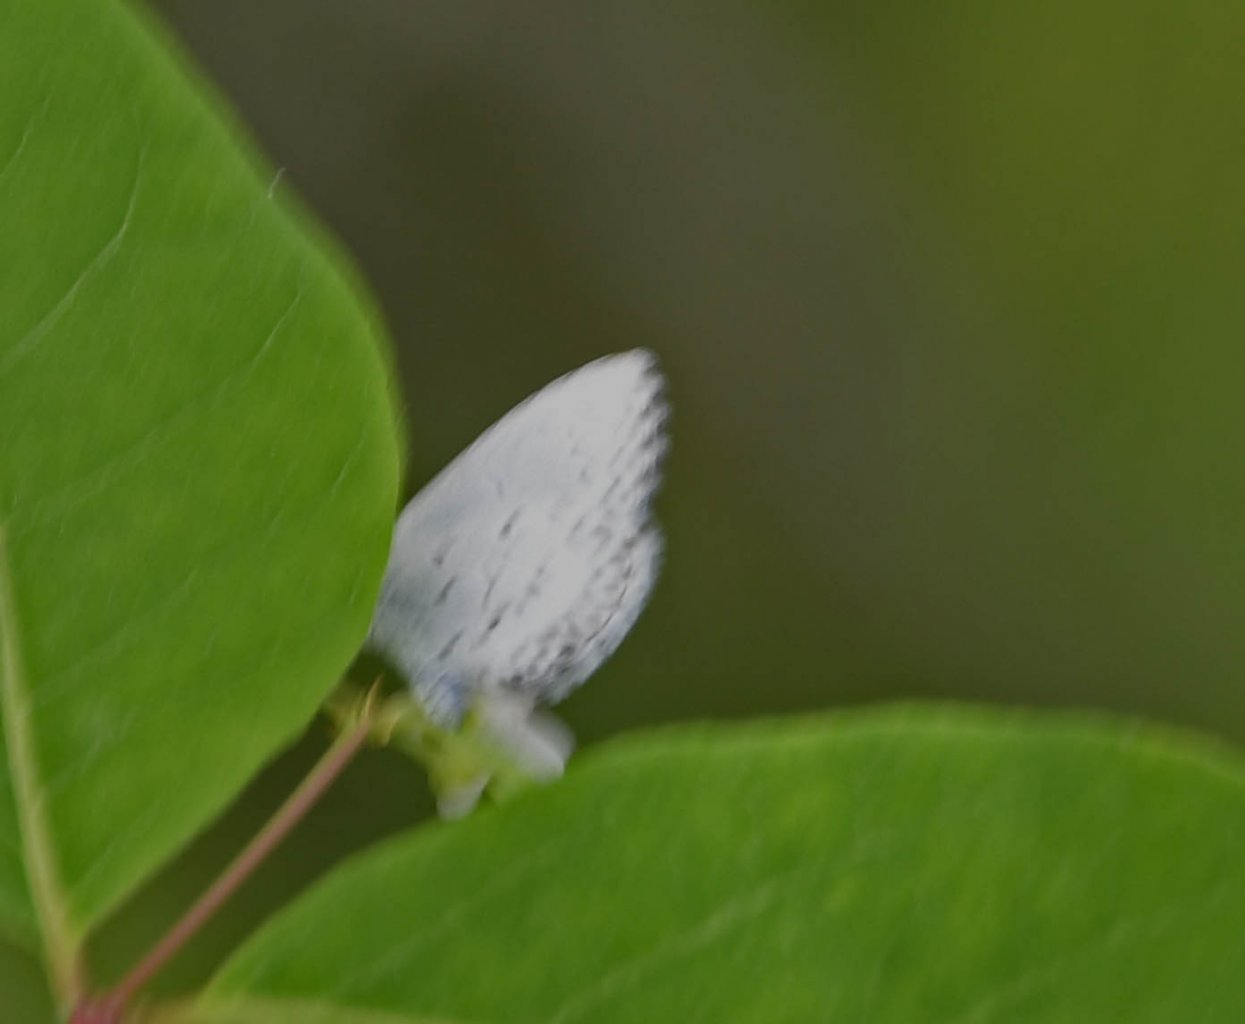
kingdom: Animalia
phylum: Arthropoda
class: Insecta
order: Lepidoptera
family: Lycaenidae
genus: Celastrina
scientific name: Celastrina lucia
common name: Northern Spring Azure
